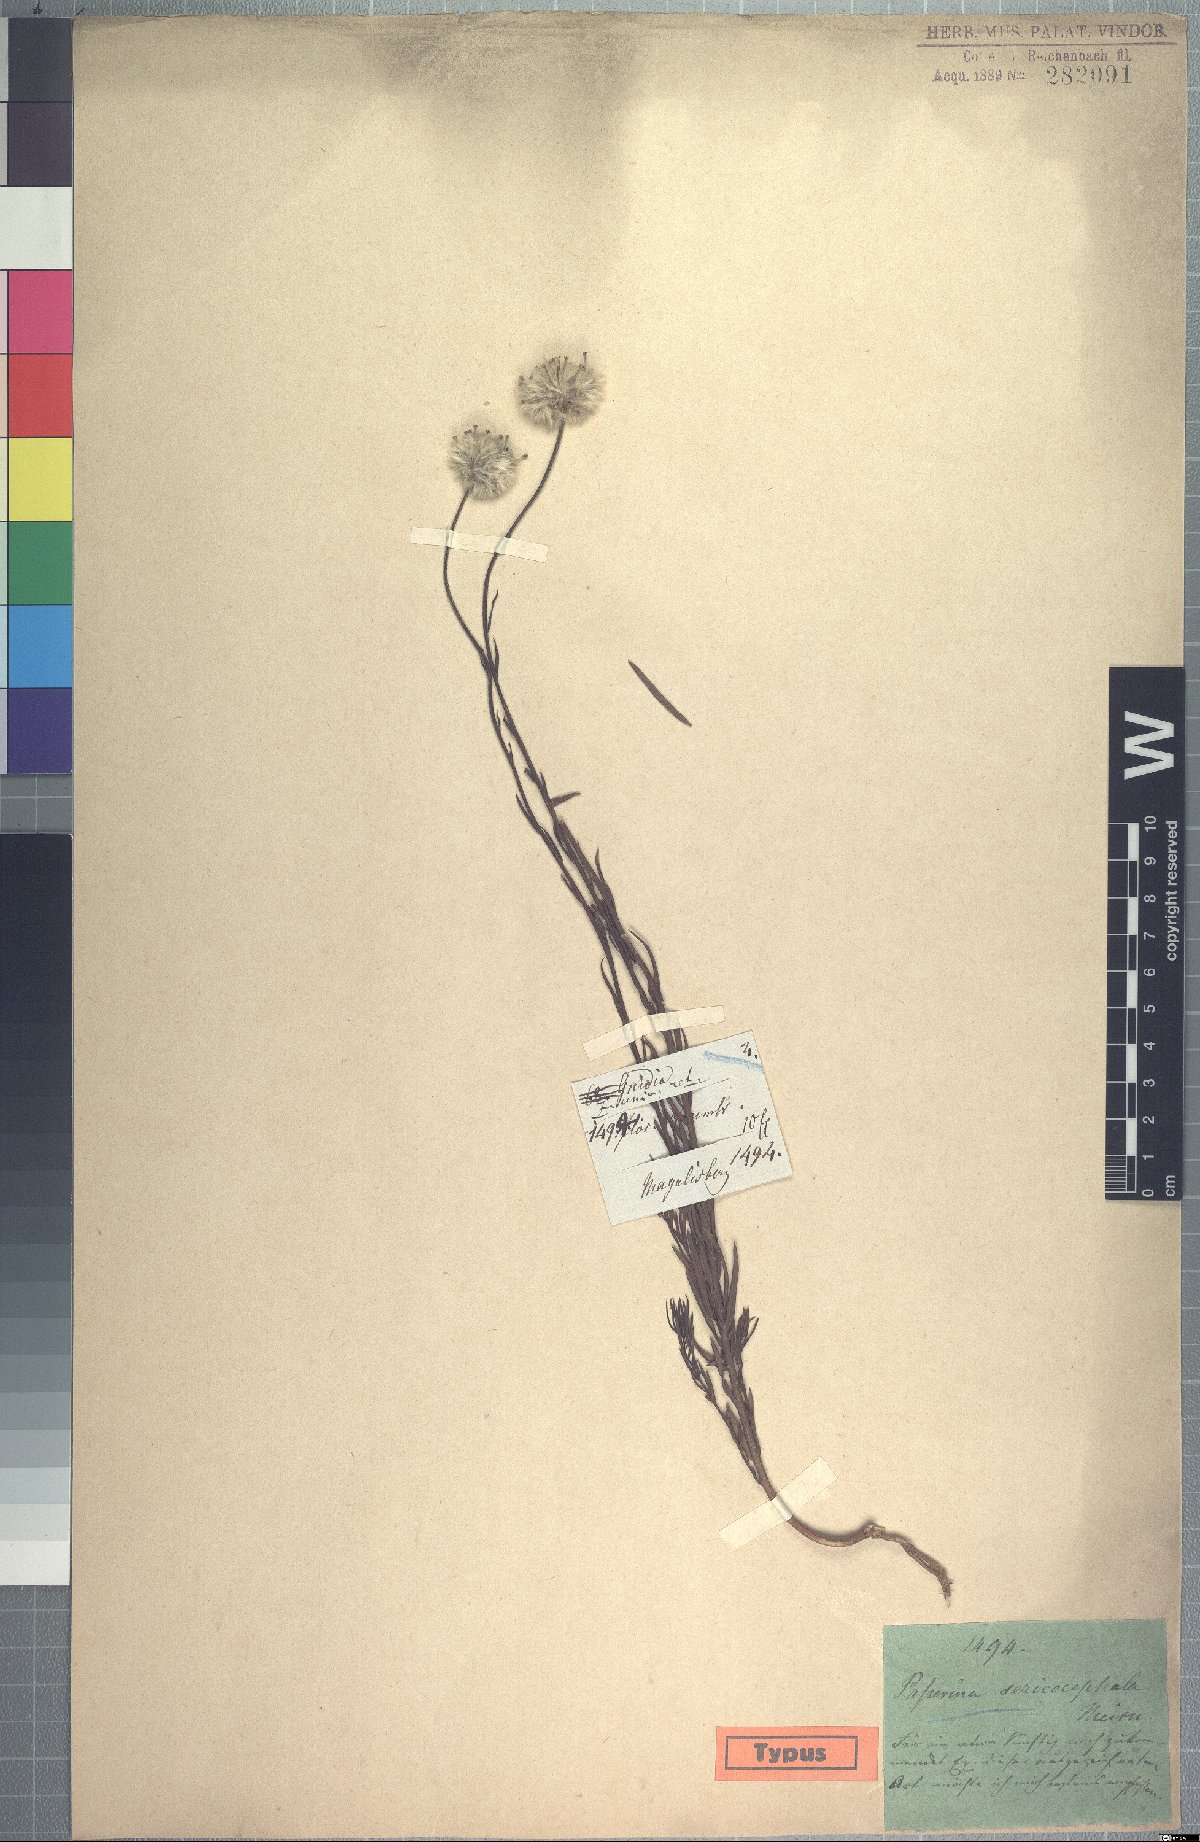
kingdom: Plantae
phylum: Tracheophyta
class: Magnoliopsida
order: Malvales
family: Thymelaeaceae
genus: Gnidia
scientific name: Gnidia sericocephala
